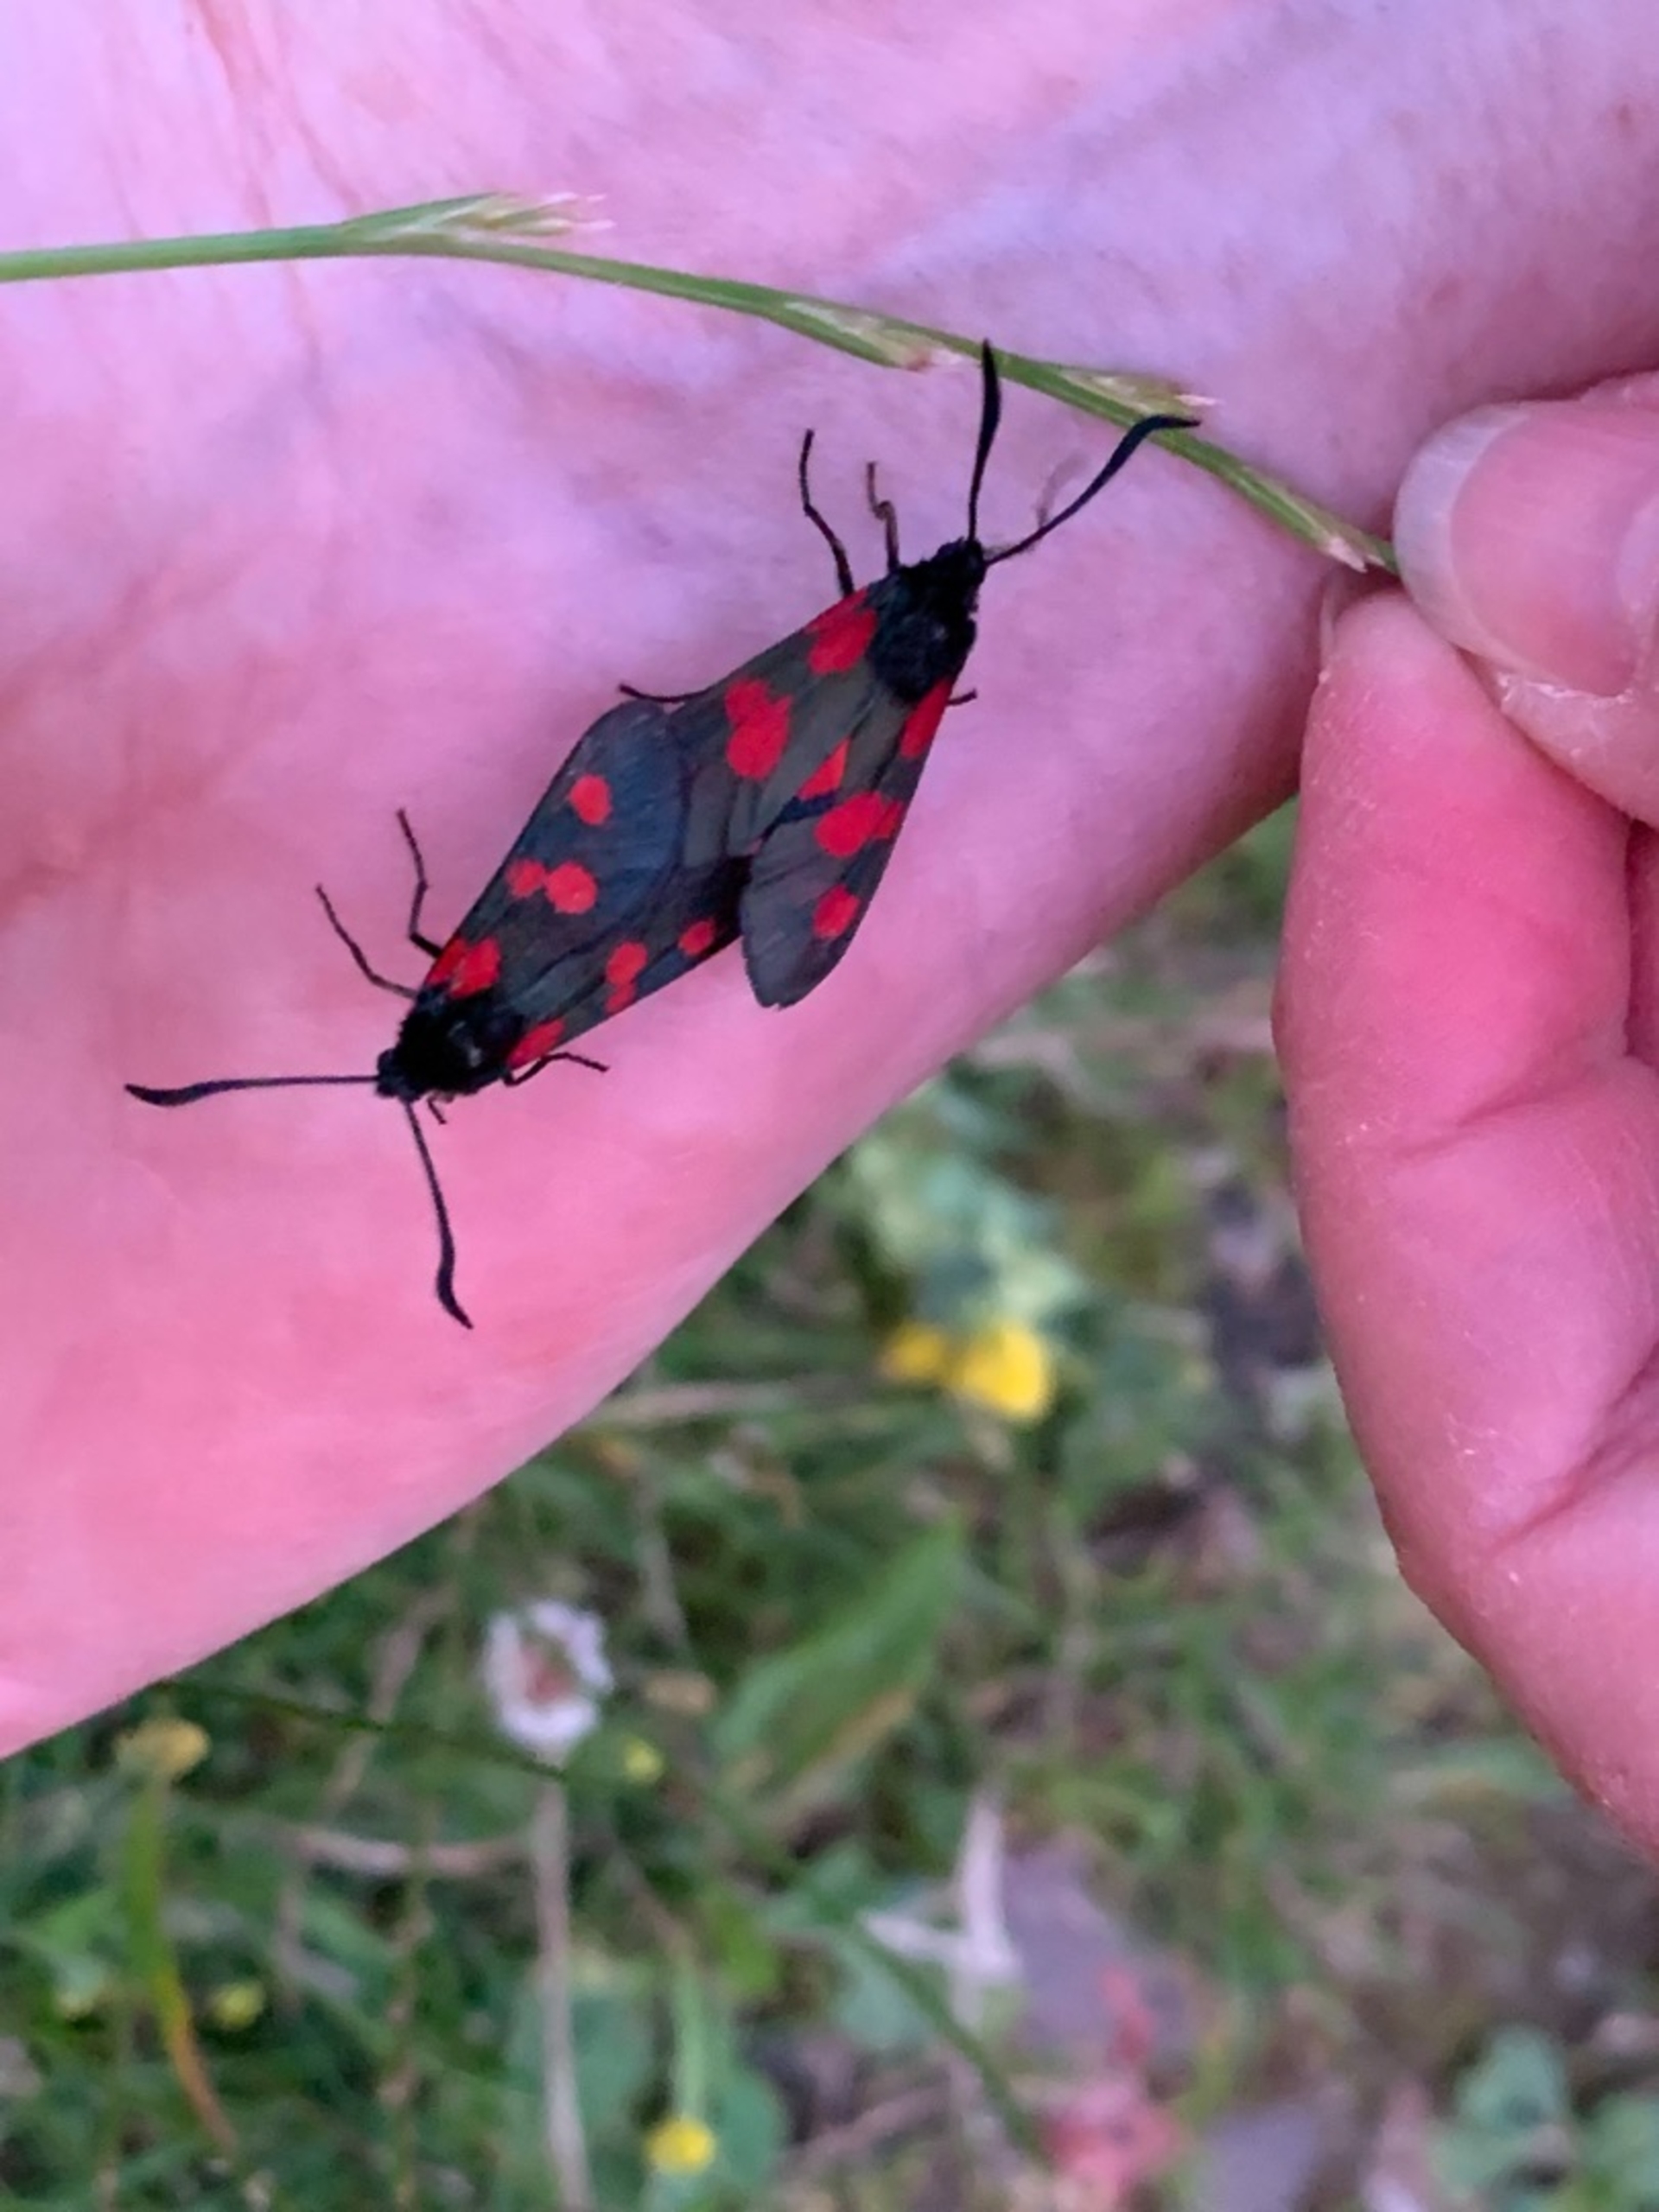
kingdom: Animalia
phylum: Arthropoda
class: Insecta
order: Lepidoptera
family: Zygaenidae
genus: Zygaena
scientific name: Zygaena lonicerae
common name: Femplettet køllesværmer
